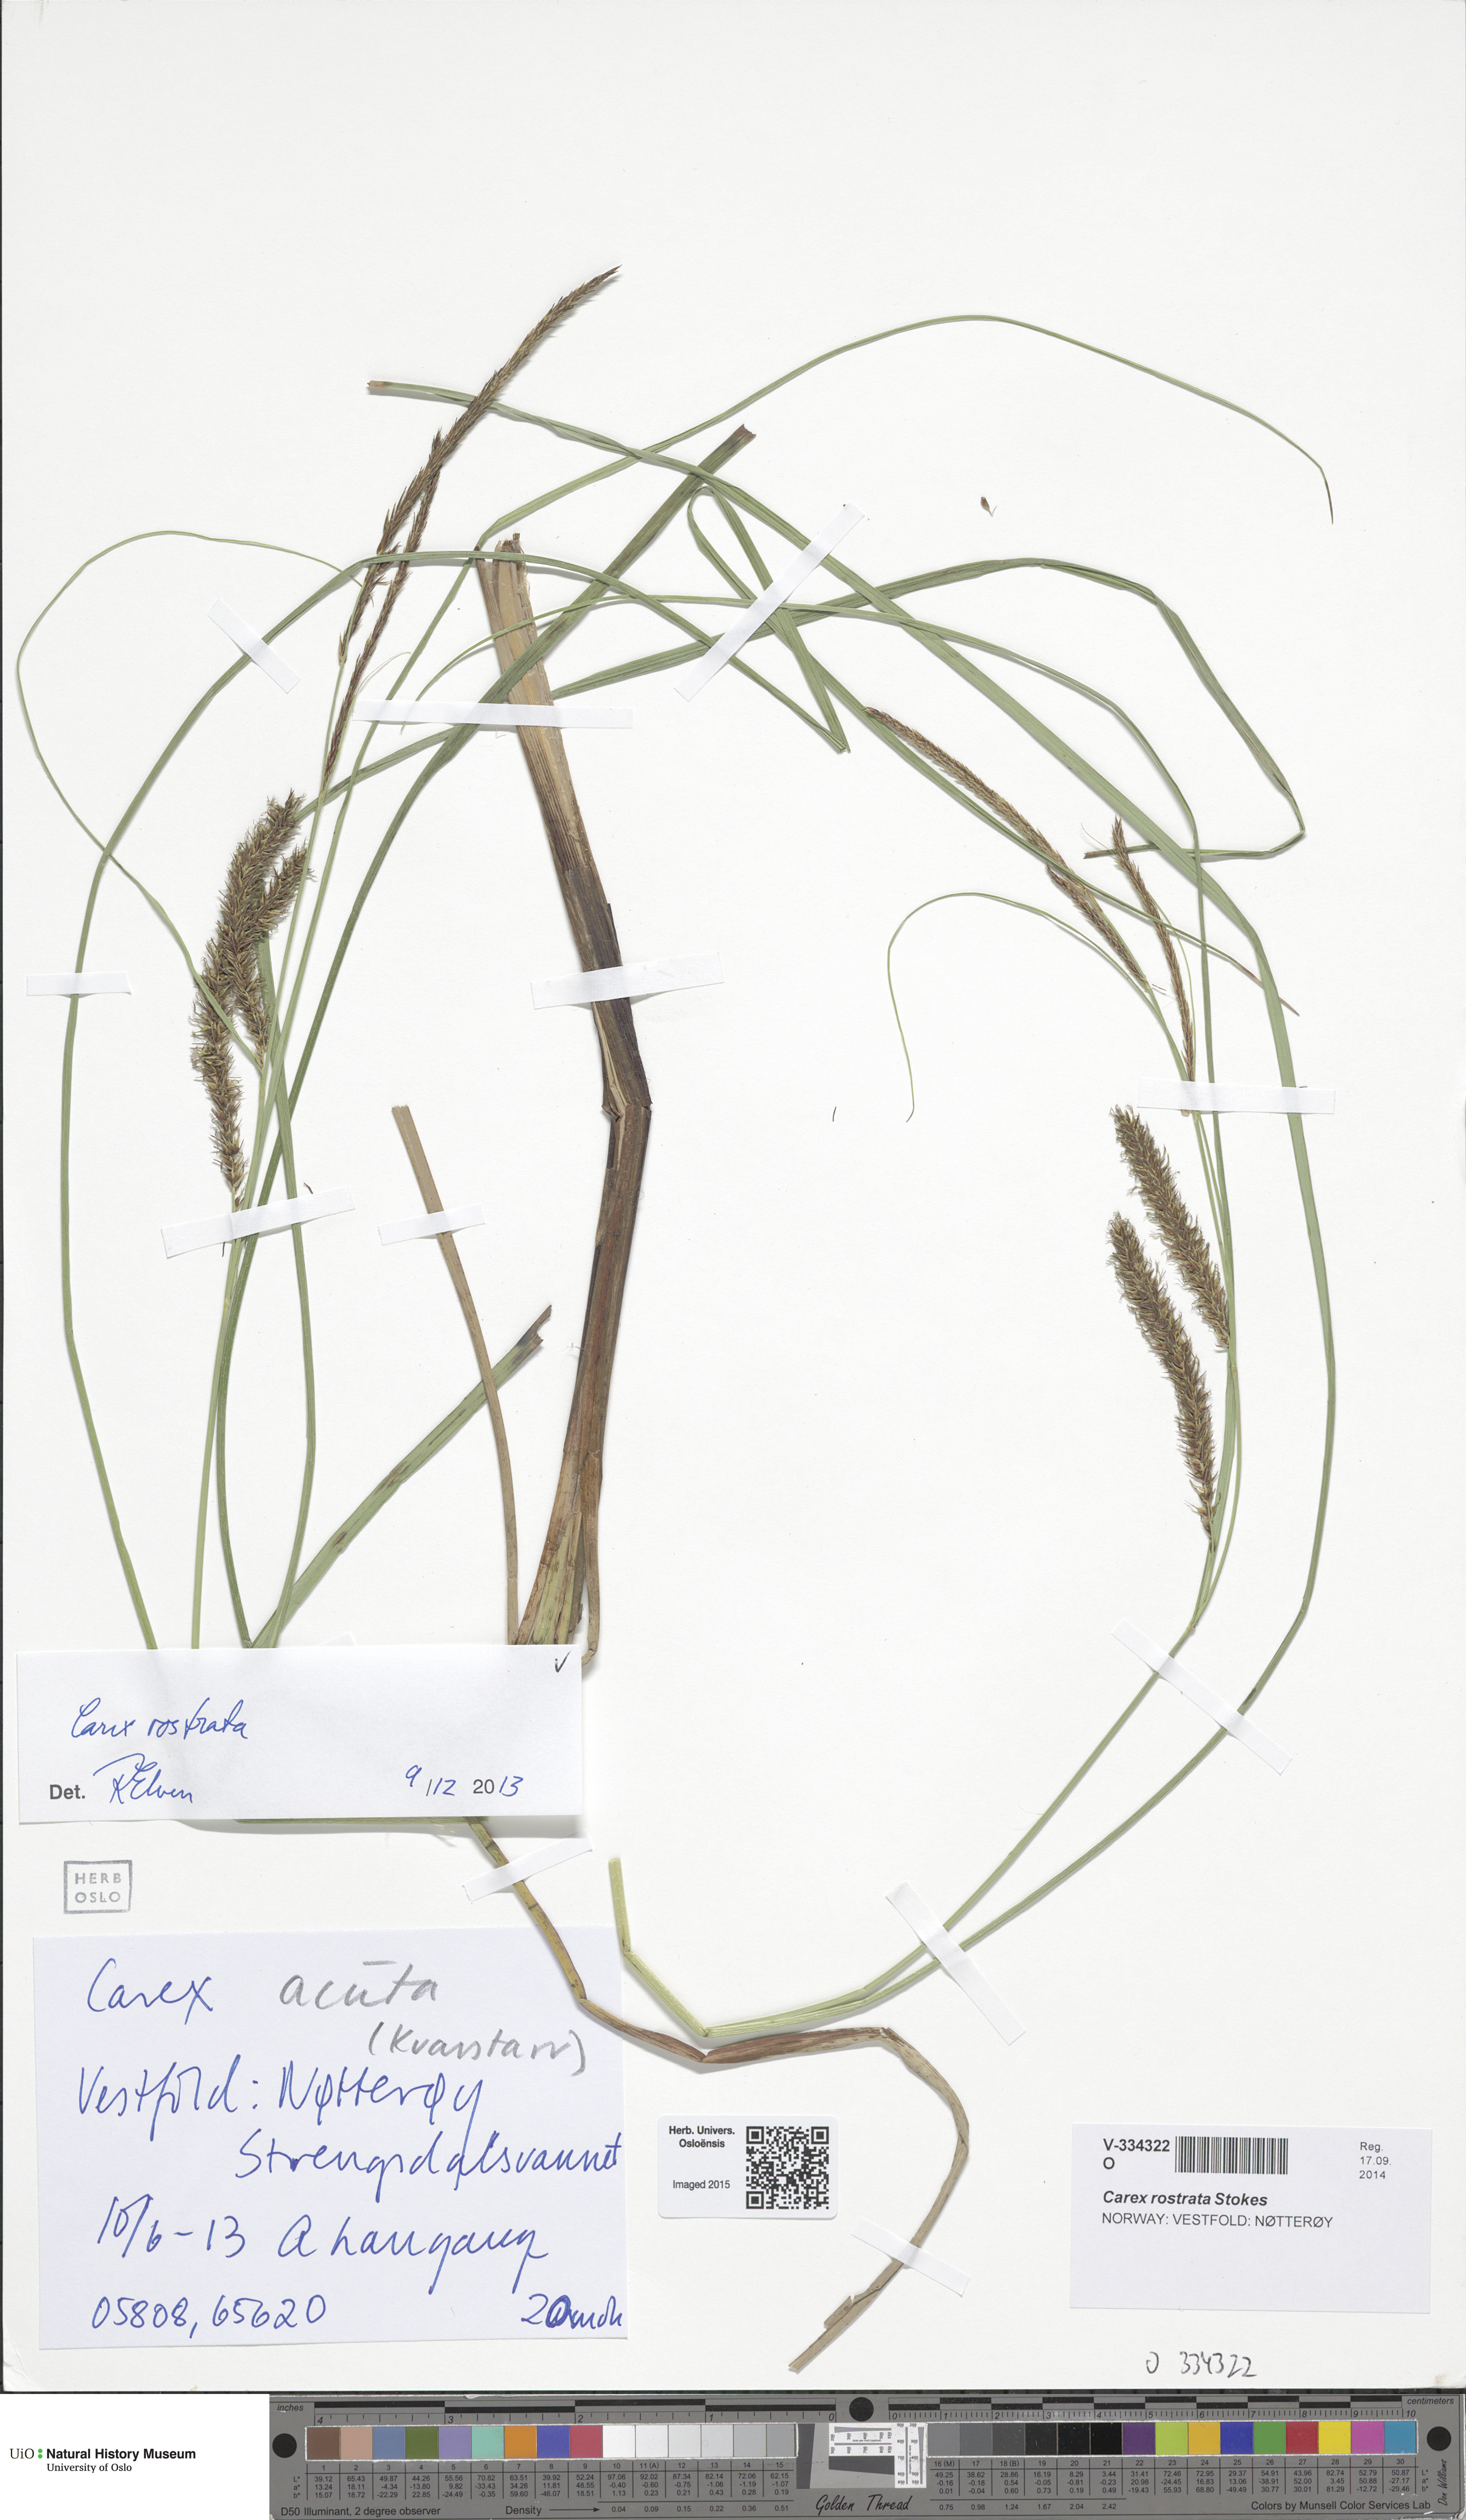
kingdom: Plantae
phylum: Tracheophyta
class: Liliopsida
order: Poales
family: Cyperaceae
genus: Carex
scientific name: Carex rostrata
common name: Bottle sedge
